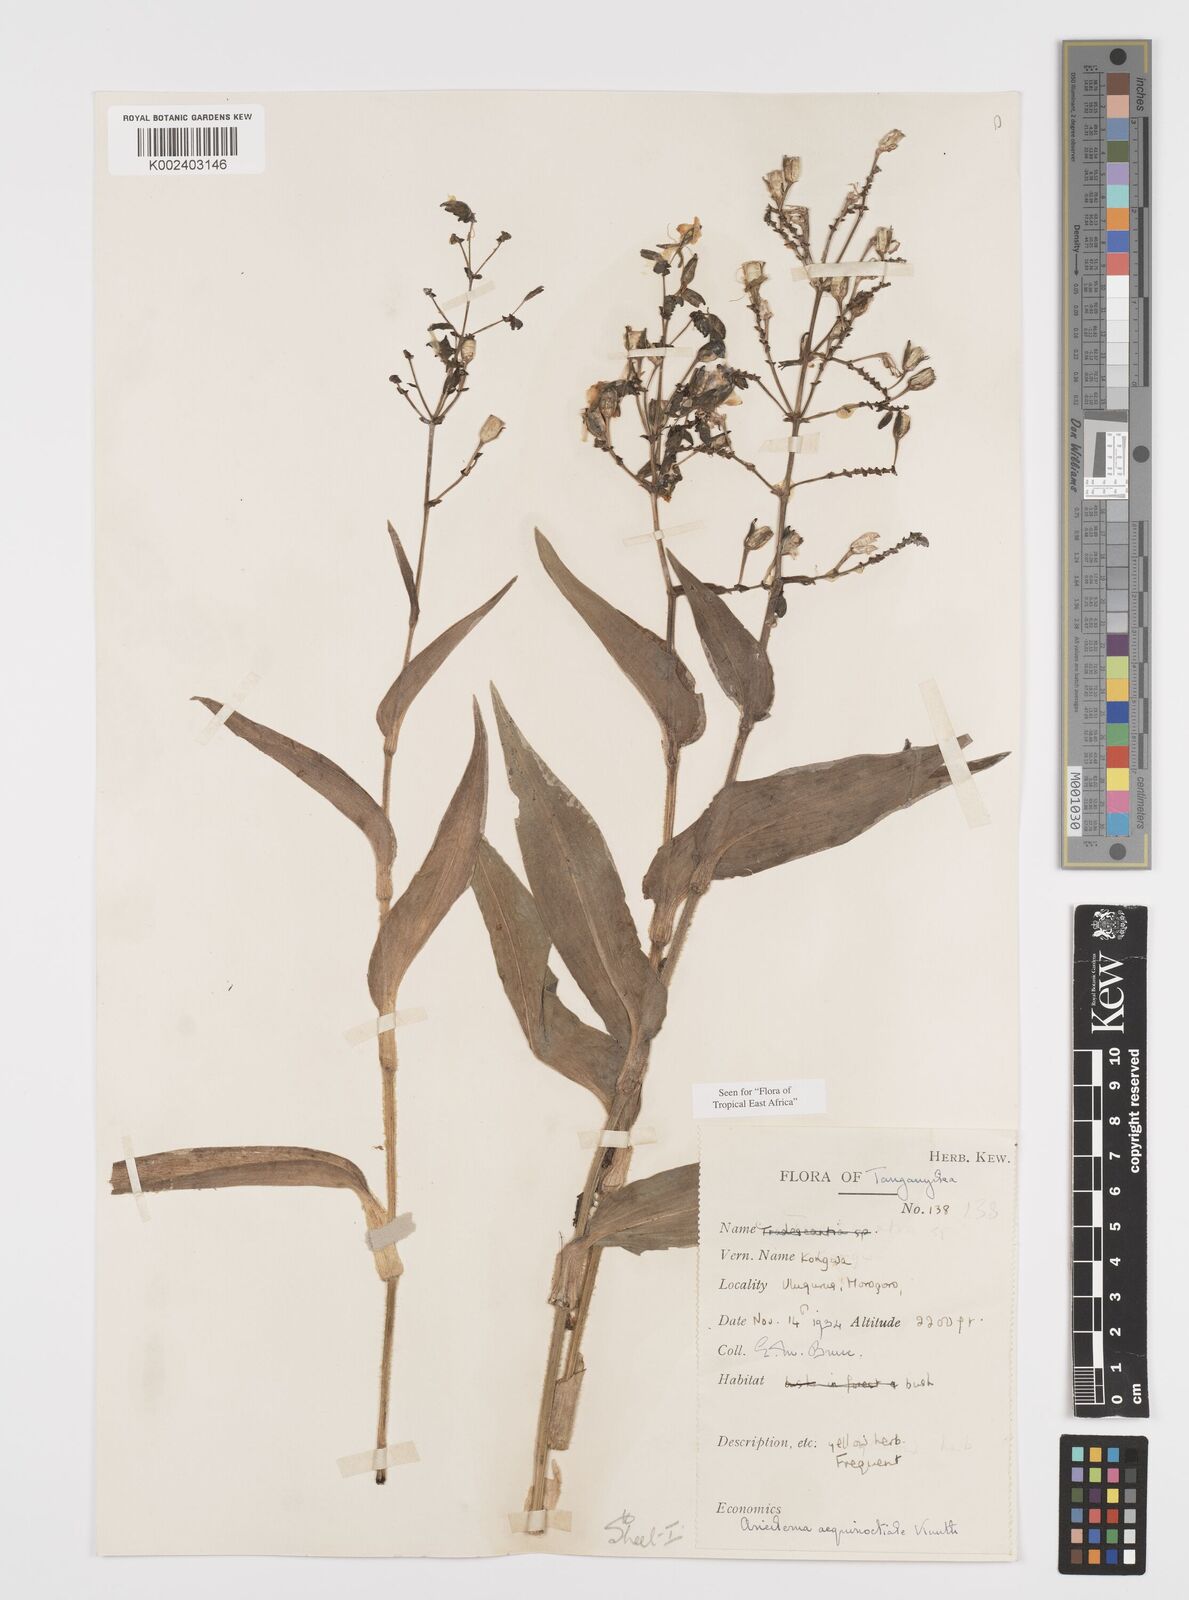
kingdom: Plantae
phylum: Tracheophyta
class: Liliopsida
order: Commelinales
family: Commelinaceae
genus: Aneilema
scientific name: Aneilema aequinoctiale
